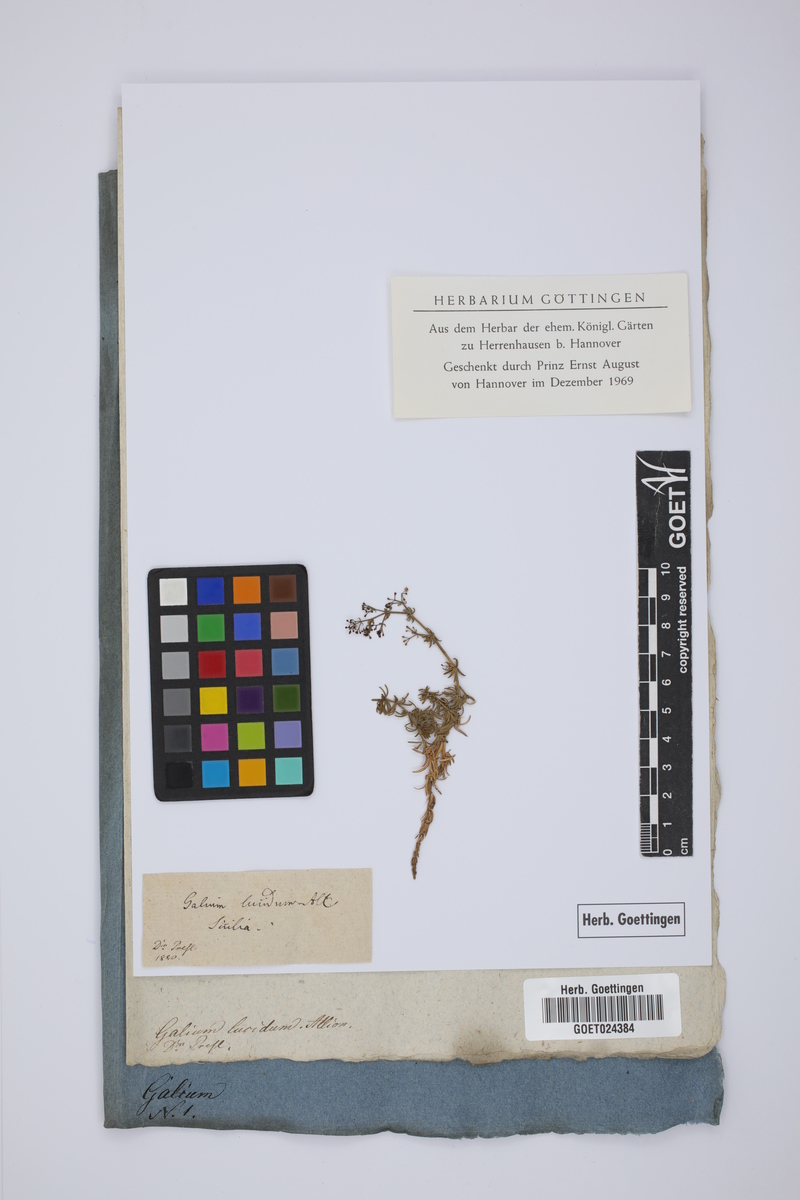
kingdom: Plantae
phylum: Tracheophyta
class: Magnoliopsida
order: Gentianales
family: Rubiaceae
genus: Galium
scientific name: Galium lucidum
